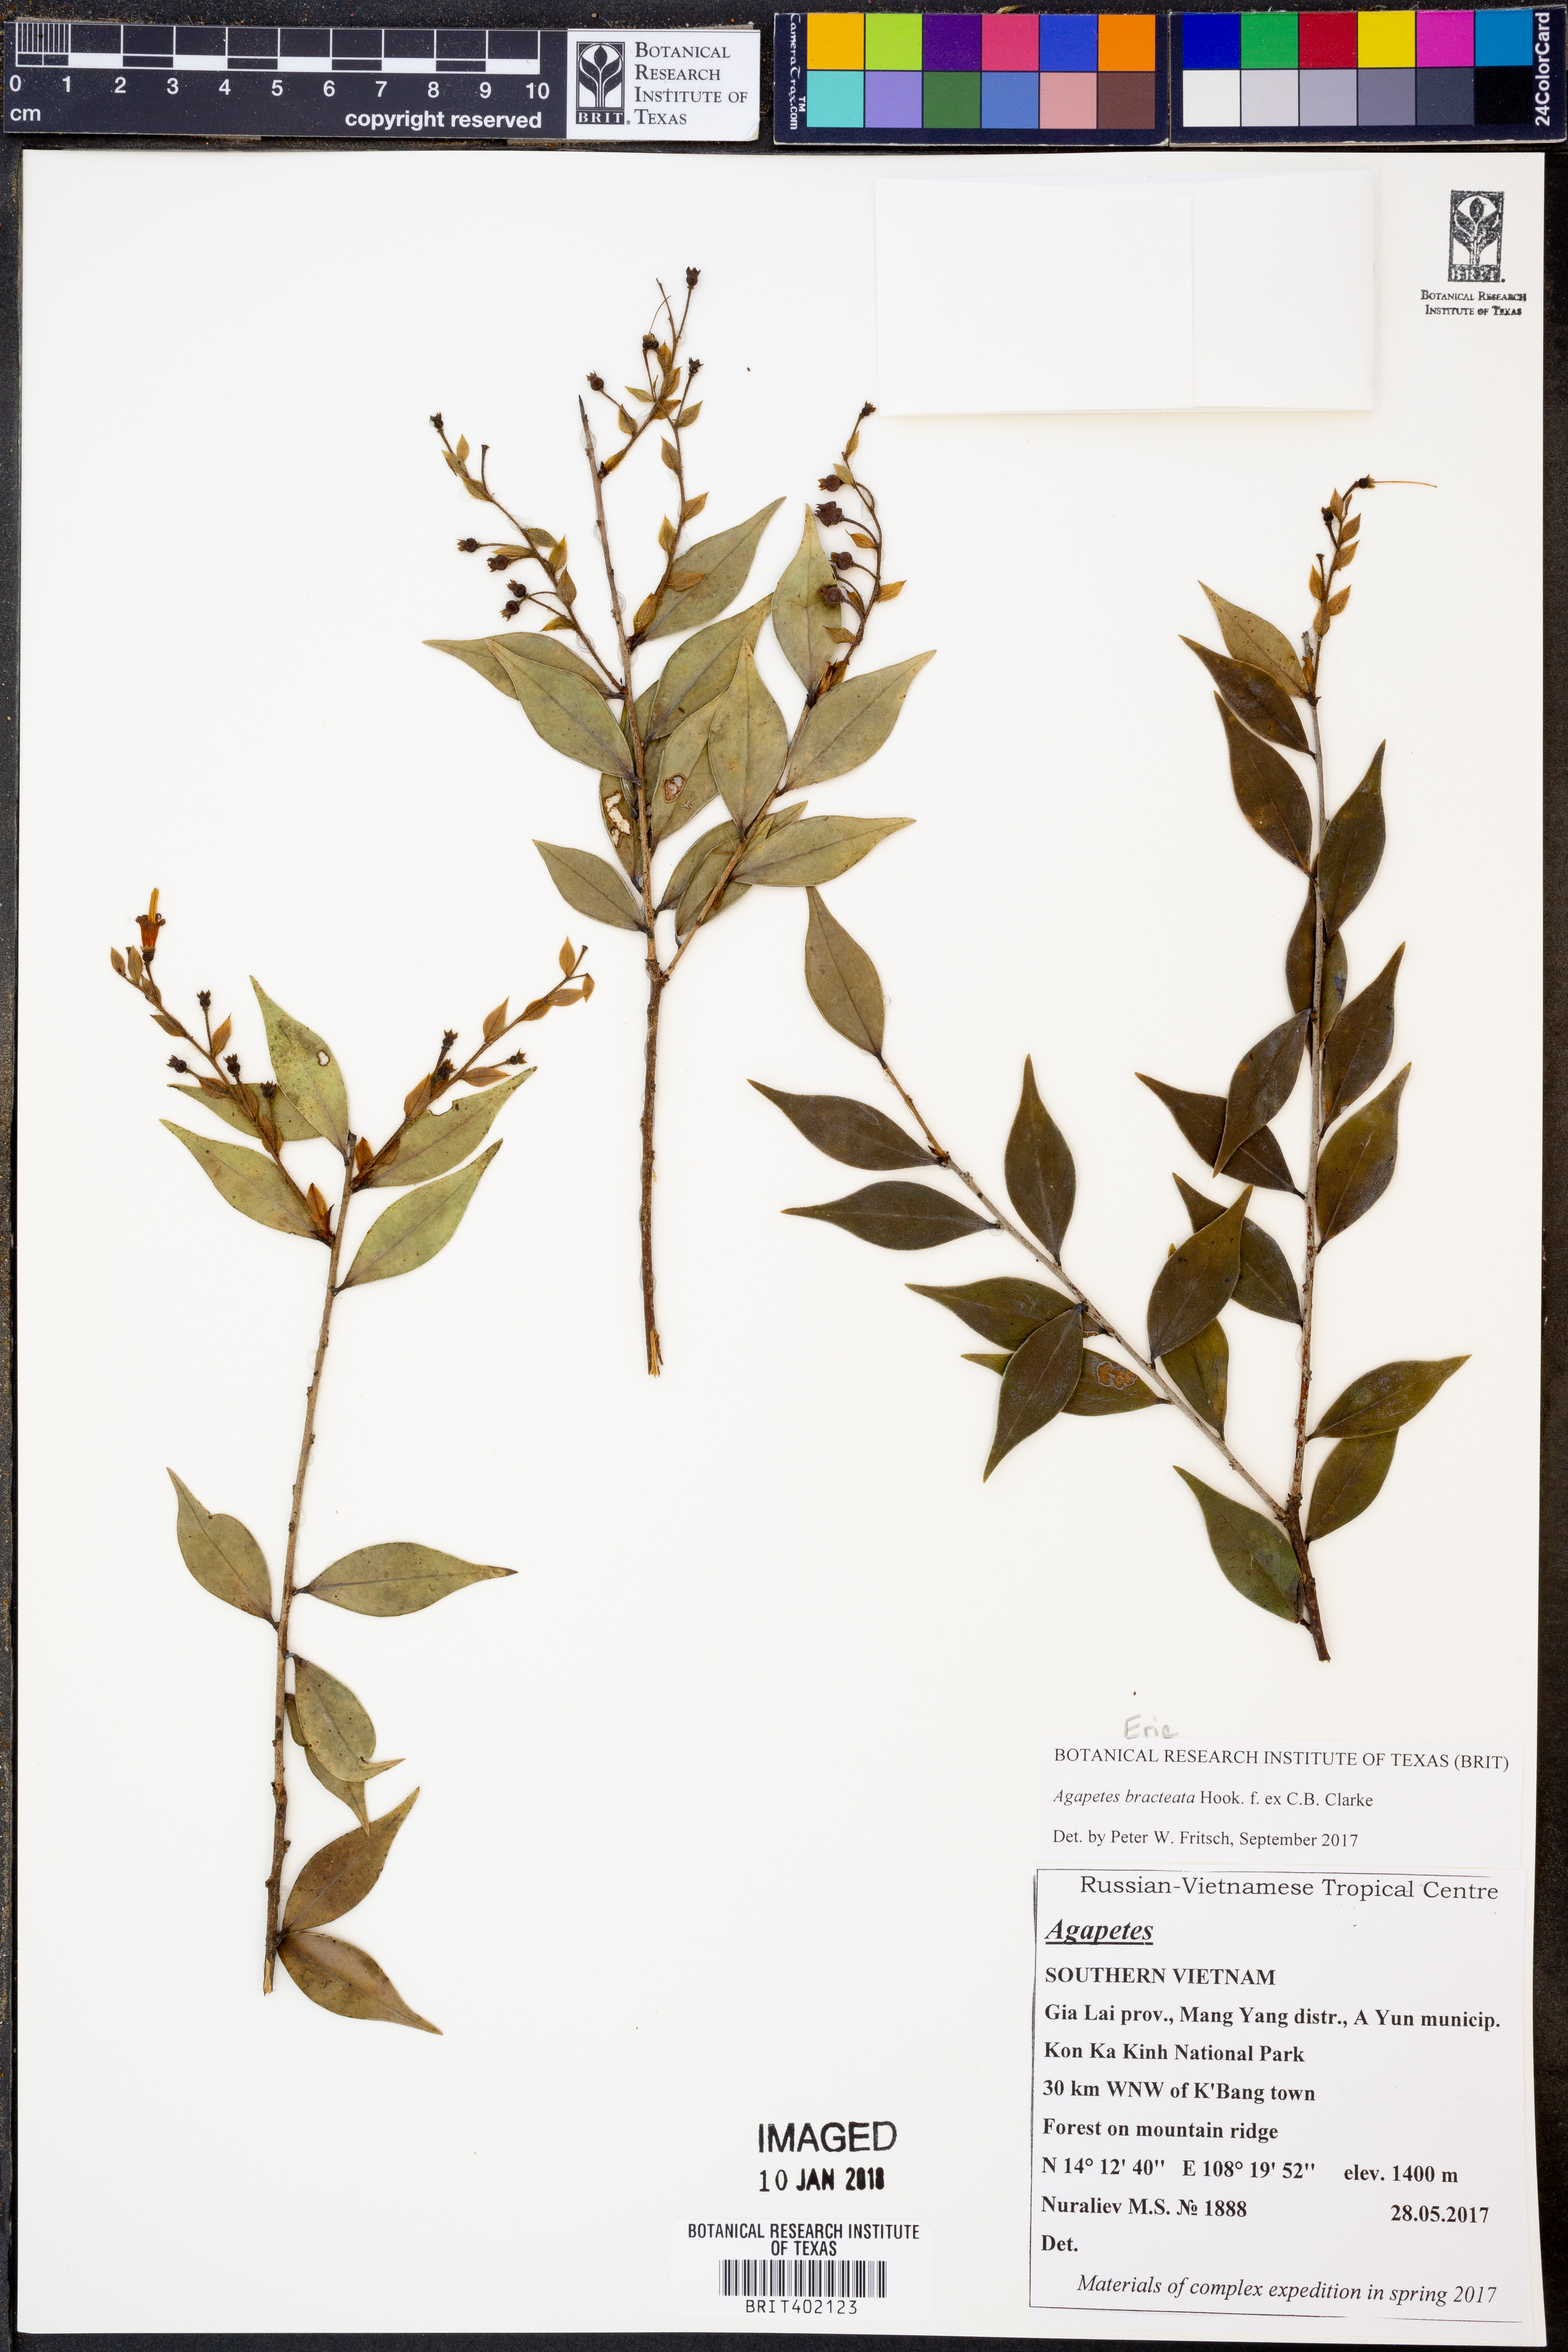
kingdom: Plantae
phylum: Tracheophyta
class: Magnoliopsida
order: Ericales
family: Ericaceae
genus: Agapetes
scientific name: Agapetes bracteata
